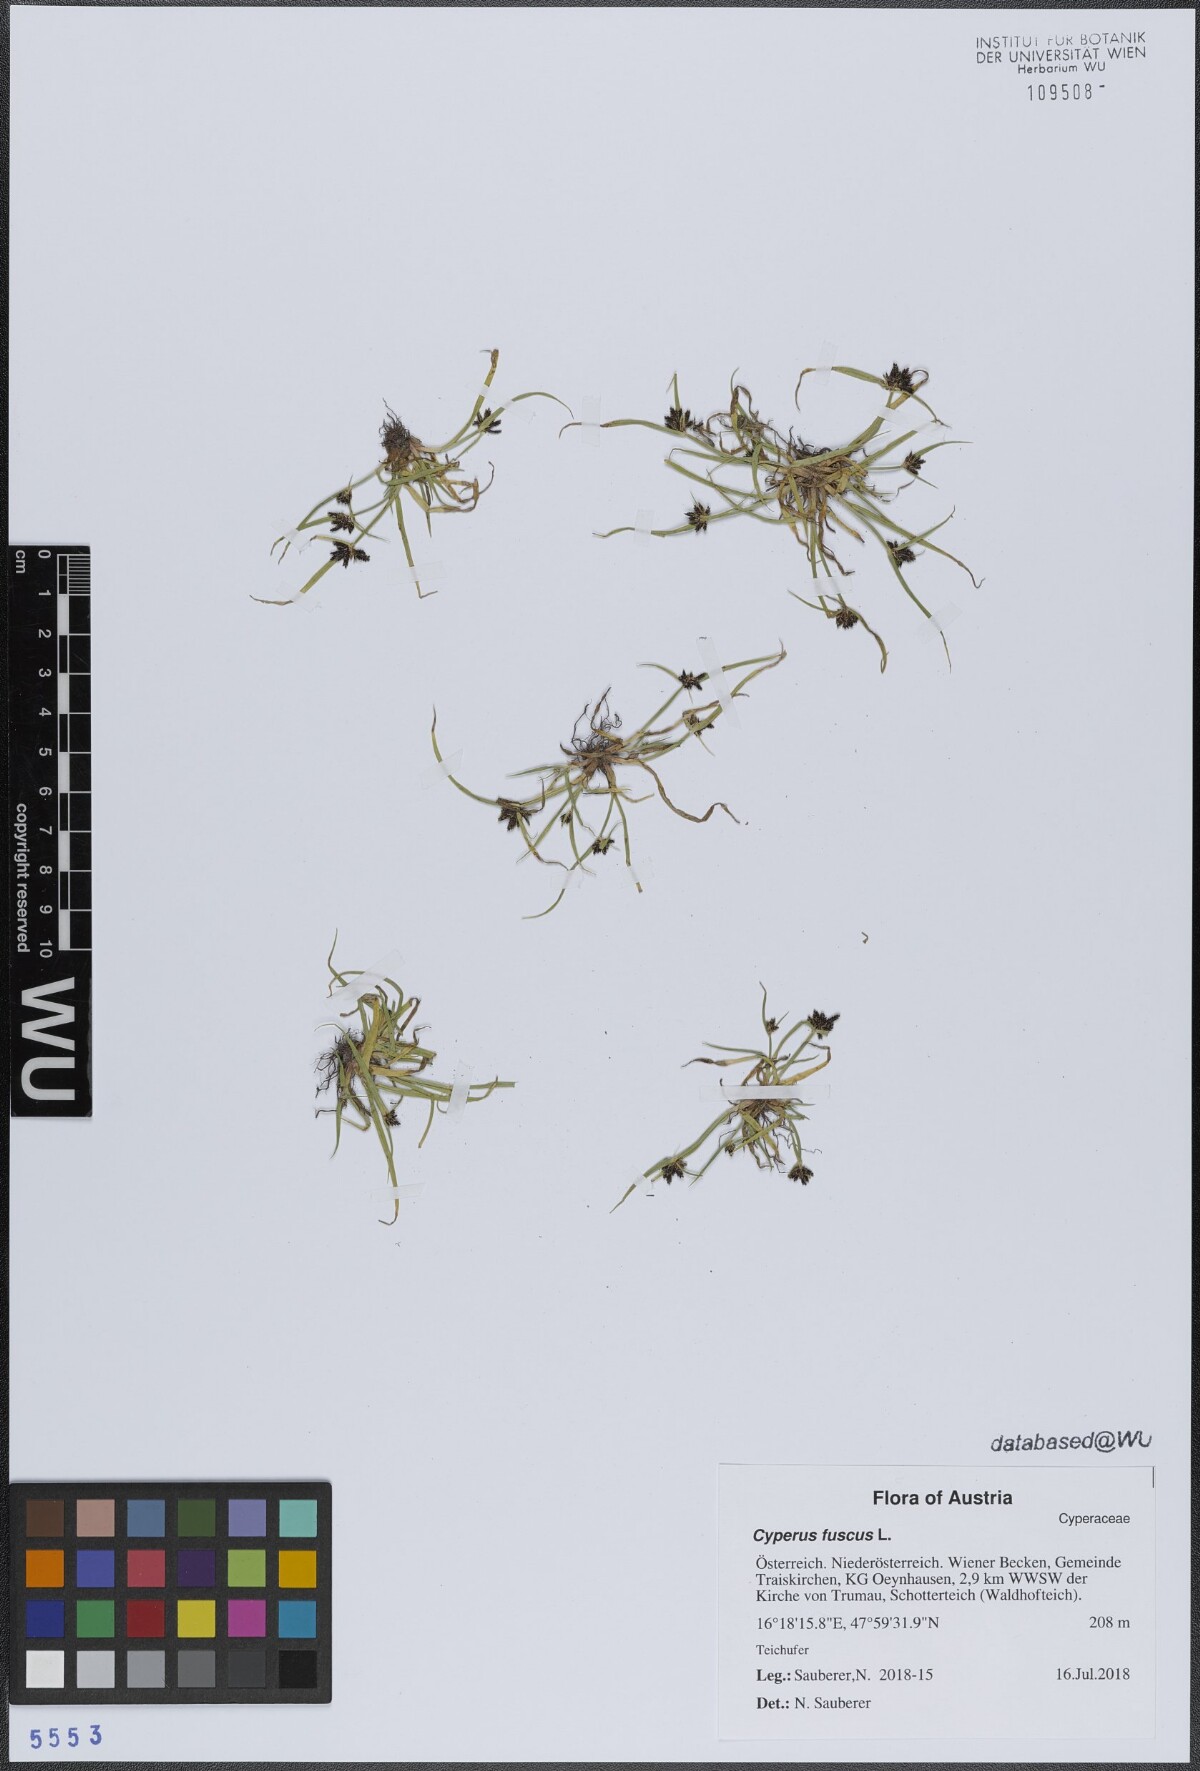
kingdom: Plantae
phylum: Tracheophyta
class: Liliopsida
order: Poales
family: Cyperaceae
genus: Cyperus
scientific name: Cyperus fuscus
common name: Brown galingale
